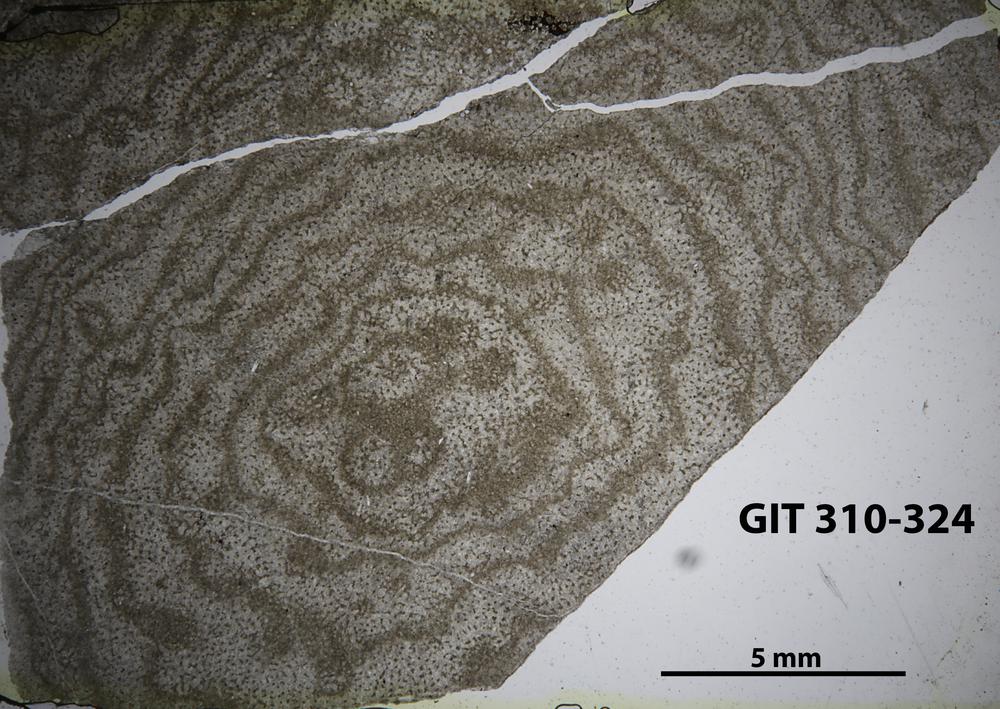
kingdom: Animalia
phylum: Porifera
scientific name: Porifera
